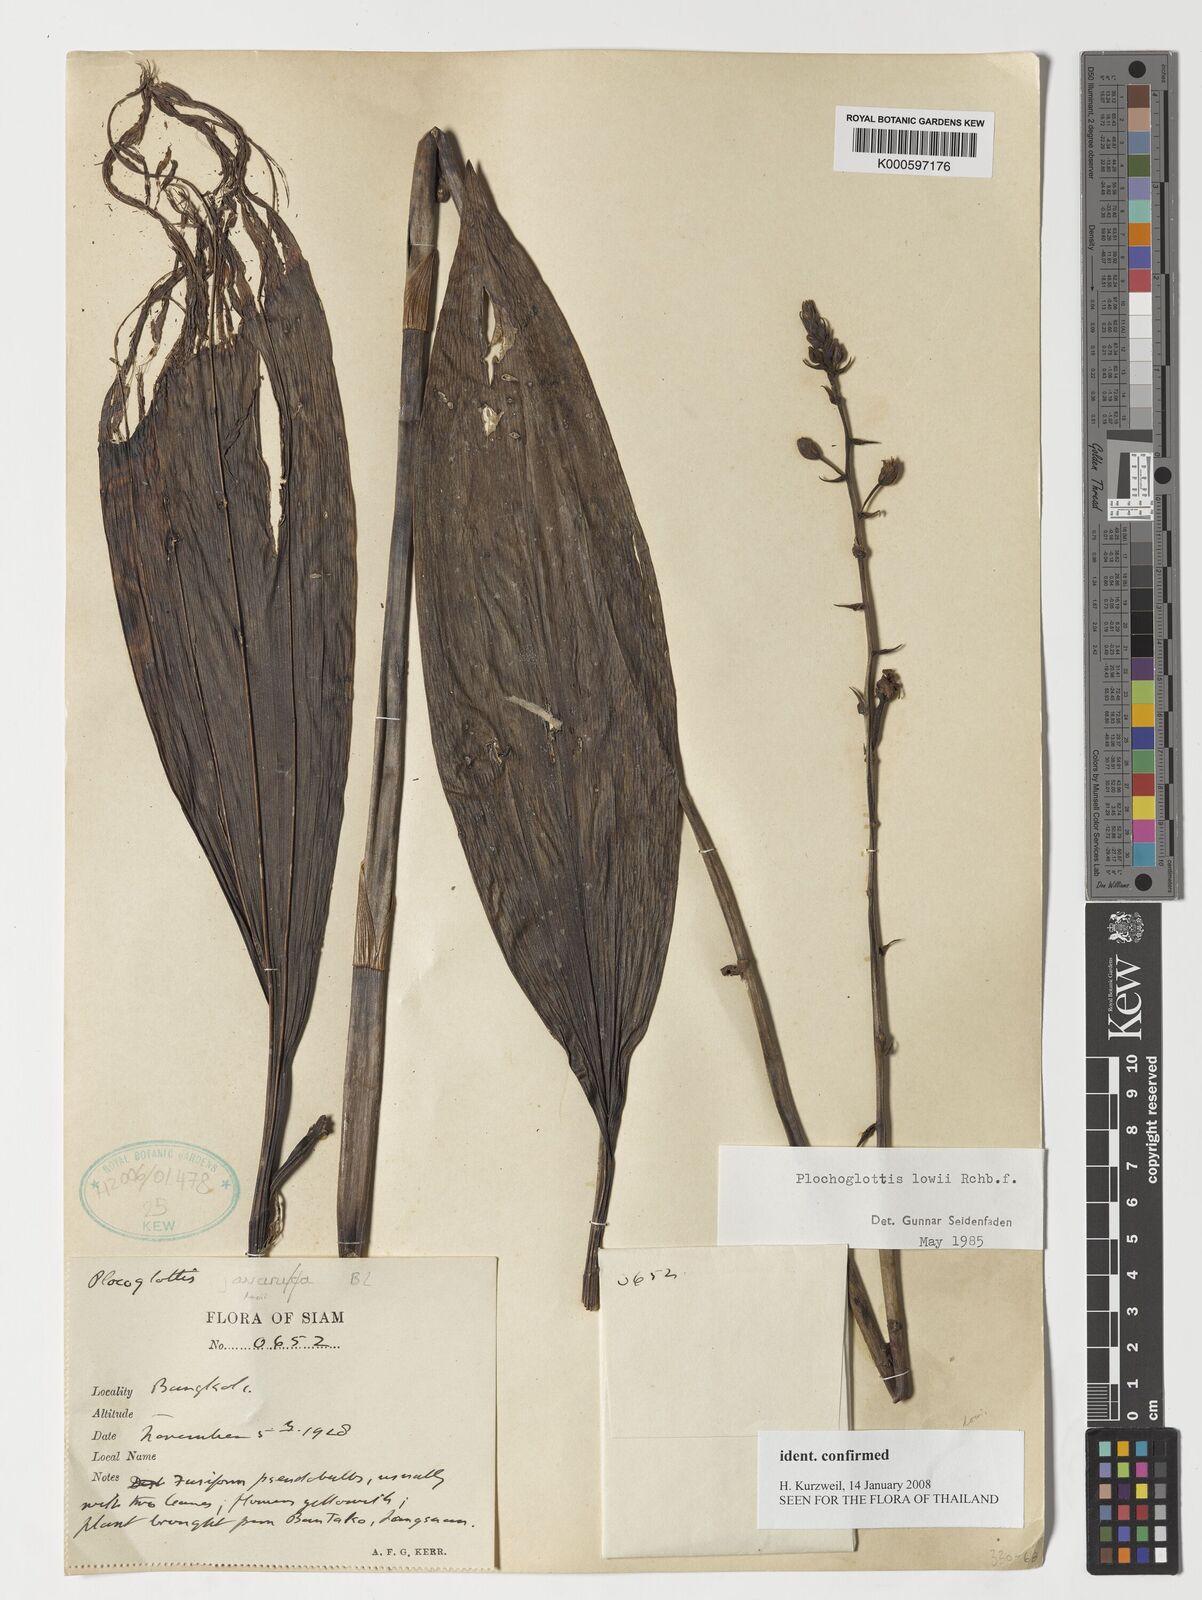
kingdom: Plantae
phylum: Tracheophyta
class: Liliopsida
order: Asparagales
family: Orchidaceae
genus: Plocoglottis
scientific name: Plocoglottis lowii
